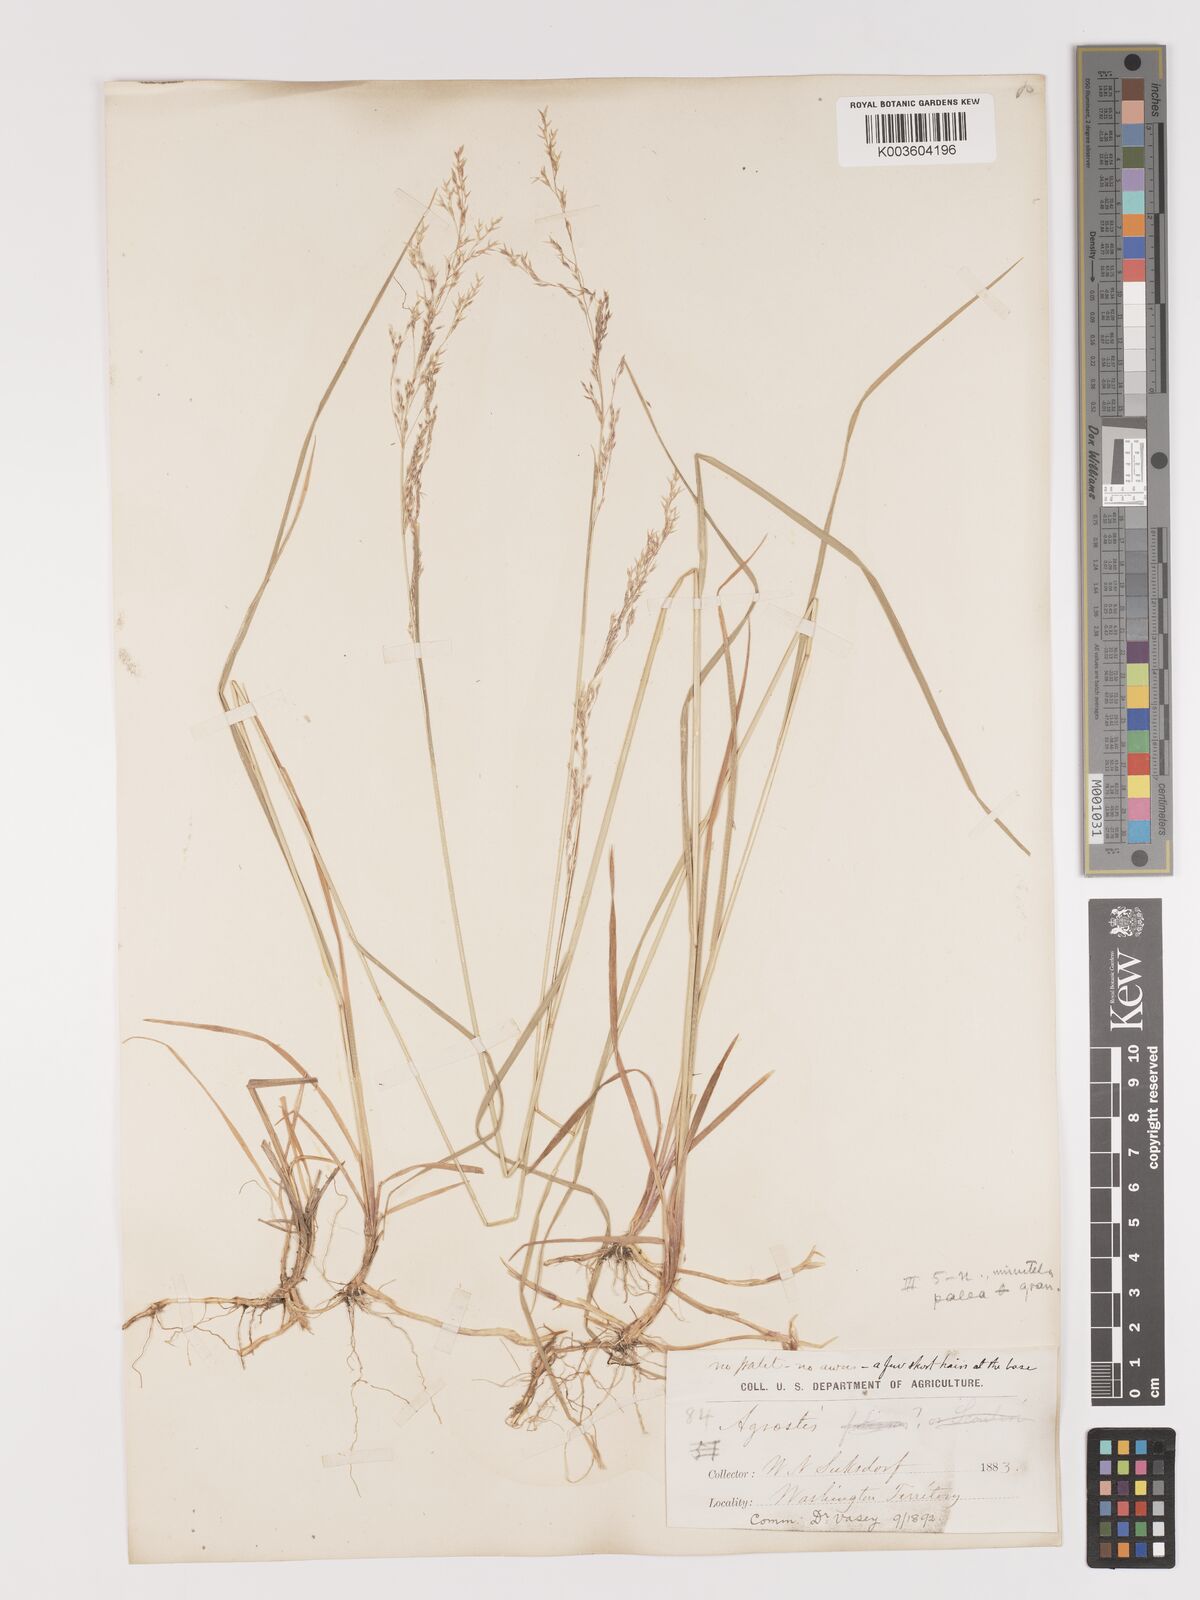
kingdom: Plantae
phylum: Tracheophyta
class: Liliopsida
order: Poales
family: Poaceae
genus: Agrostis
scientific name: Agrostis pallens
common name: Dune bent
